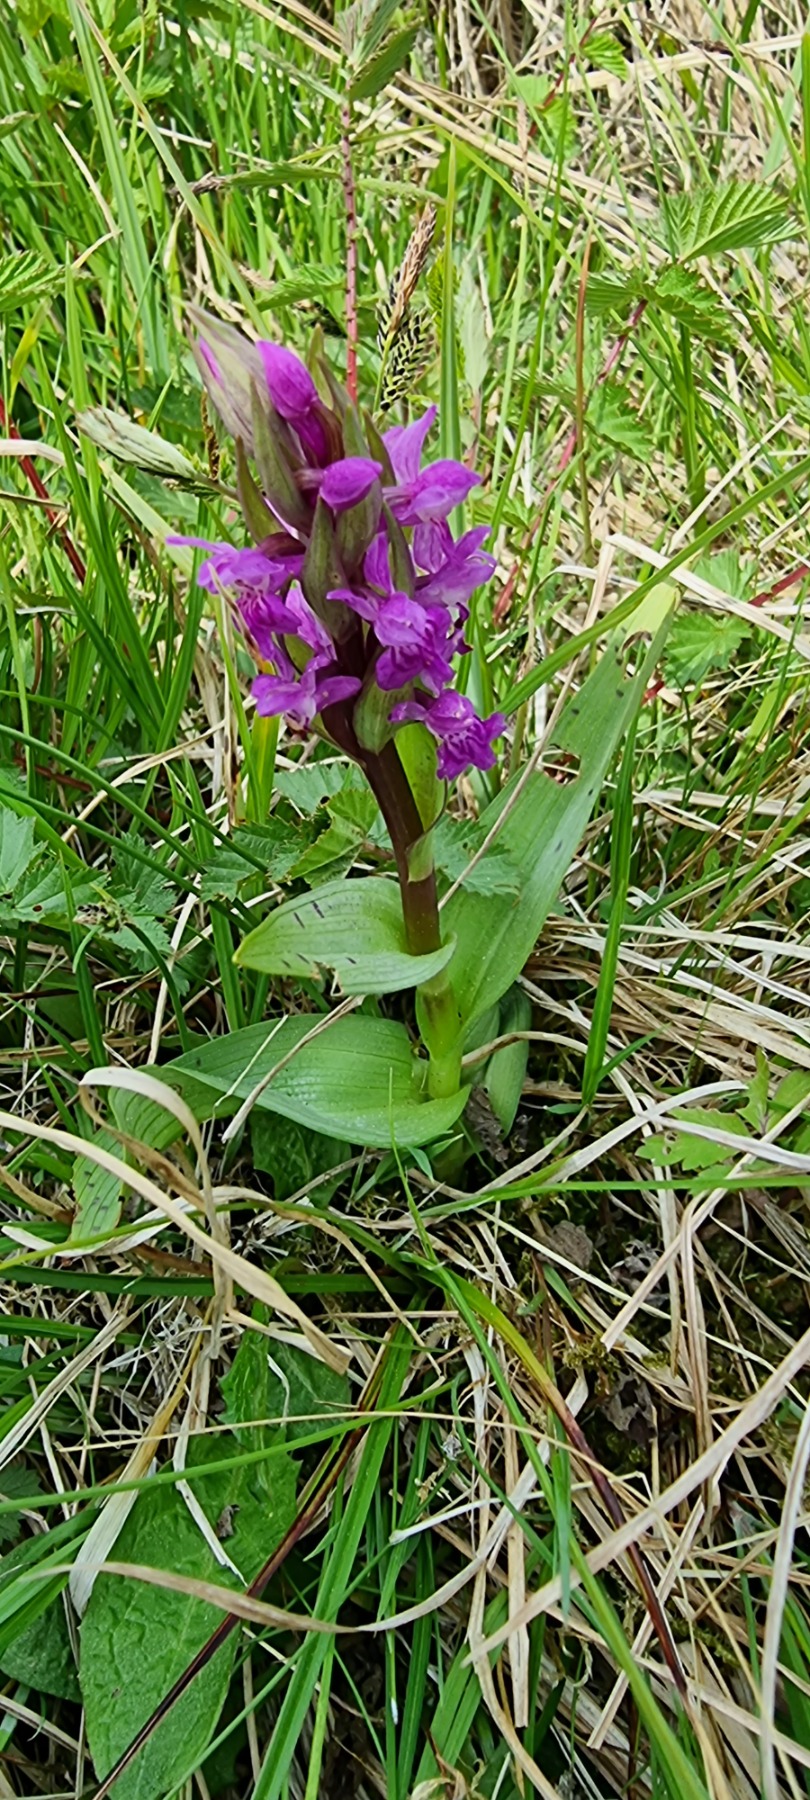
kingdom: Plantae
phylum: Tracheophyta
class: Liliopsida
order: Asparagales
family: Orchidaceae
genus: Dactylorhiza
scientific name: Dactylorhiza majalis
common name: Maj-gøgeurt
